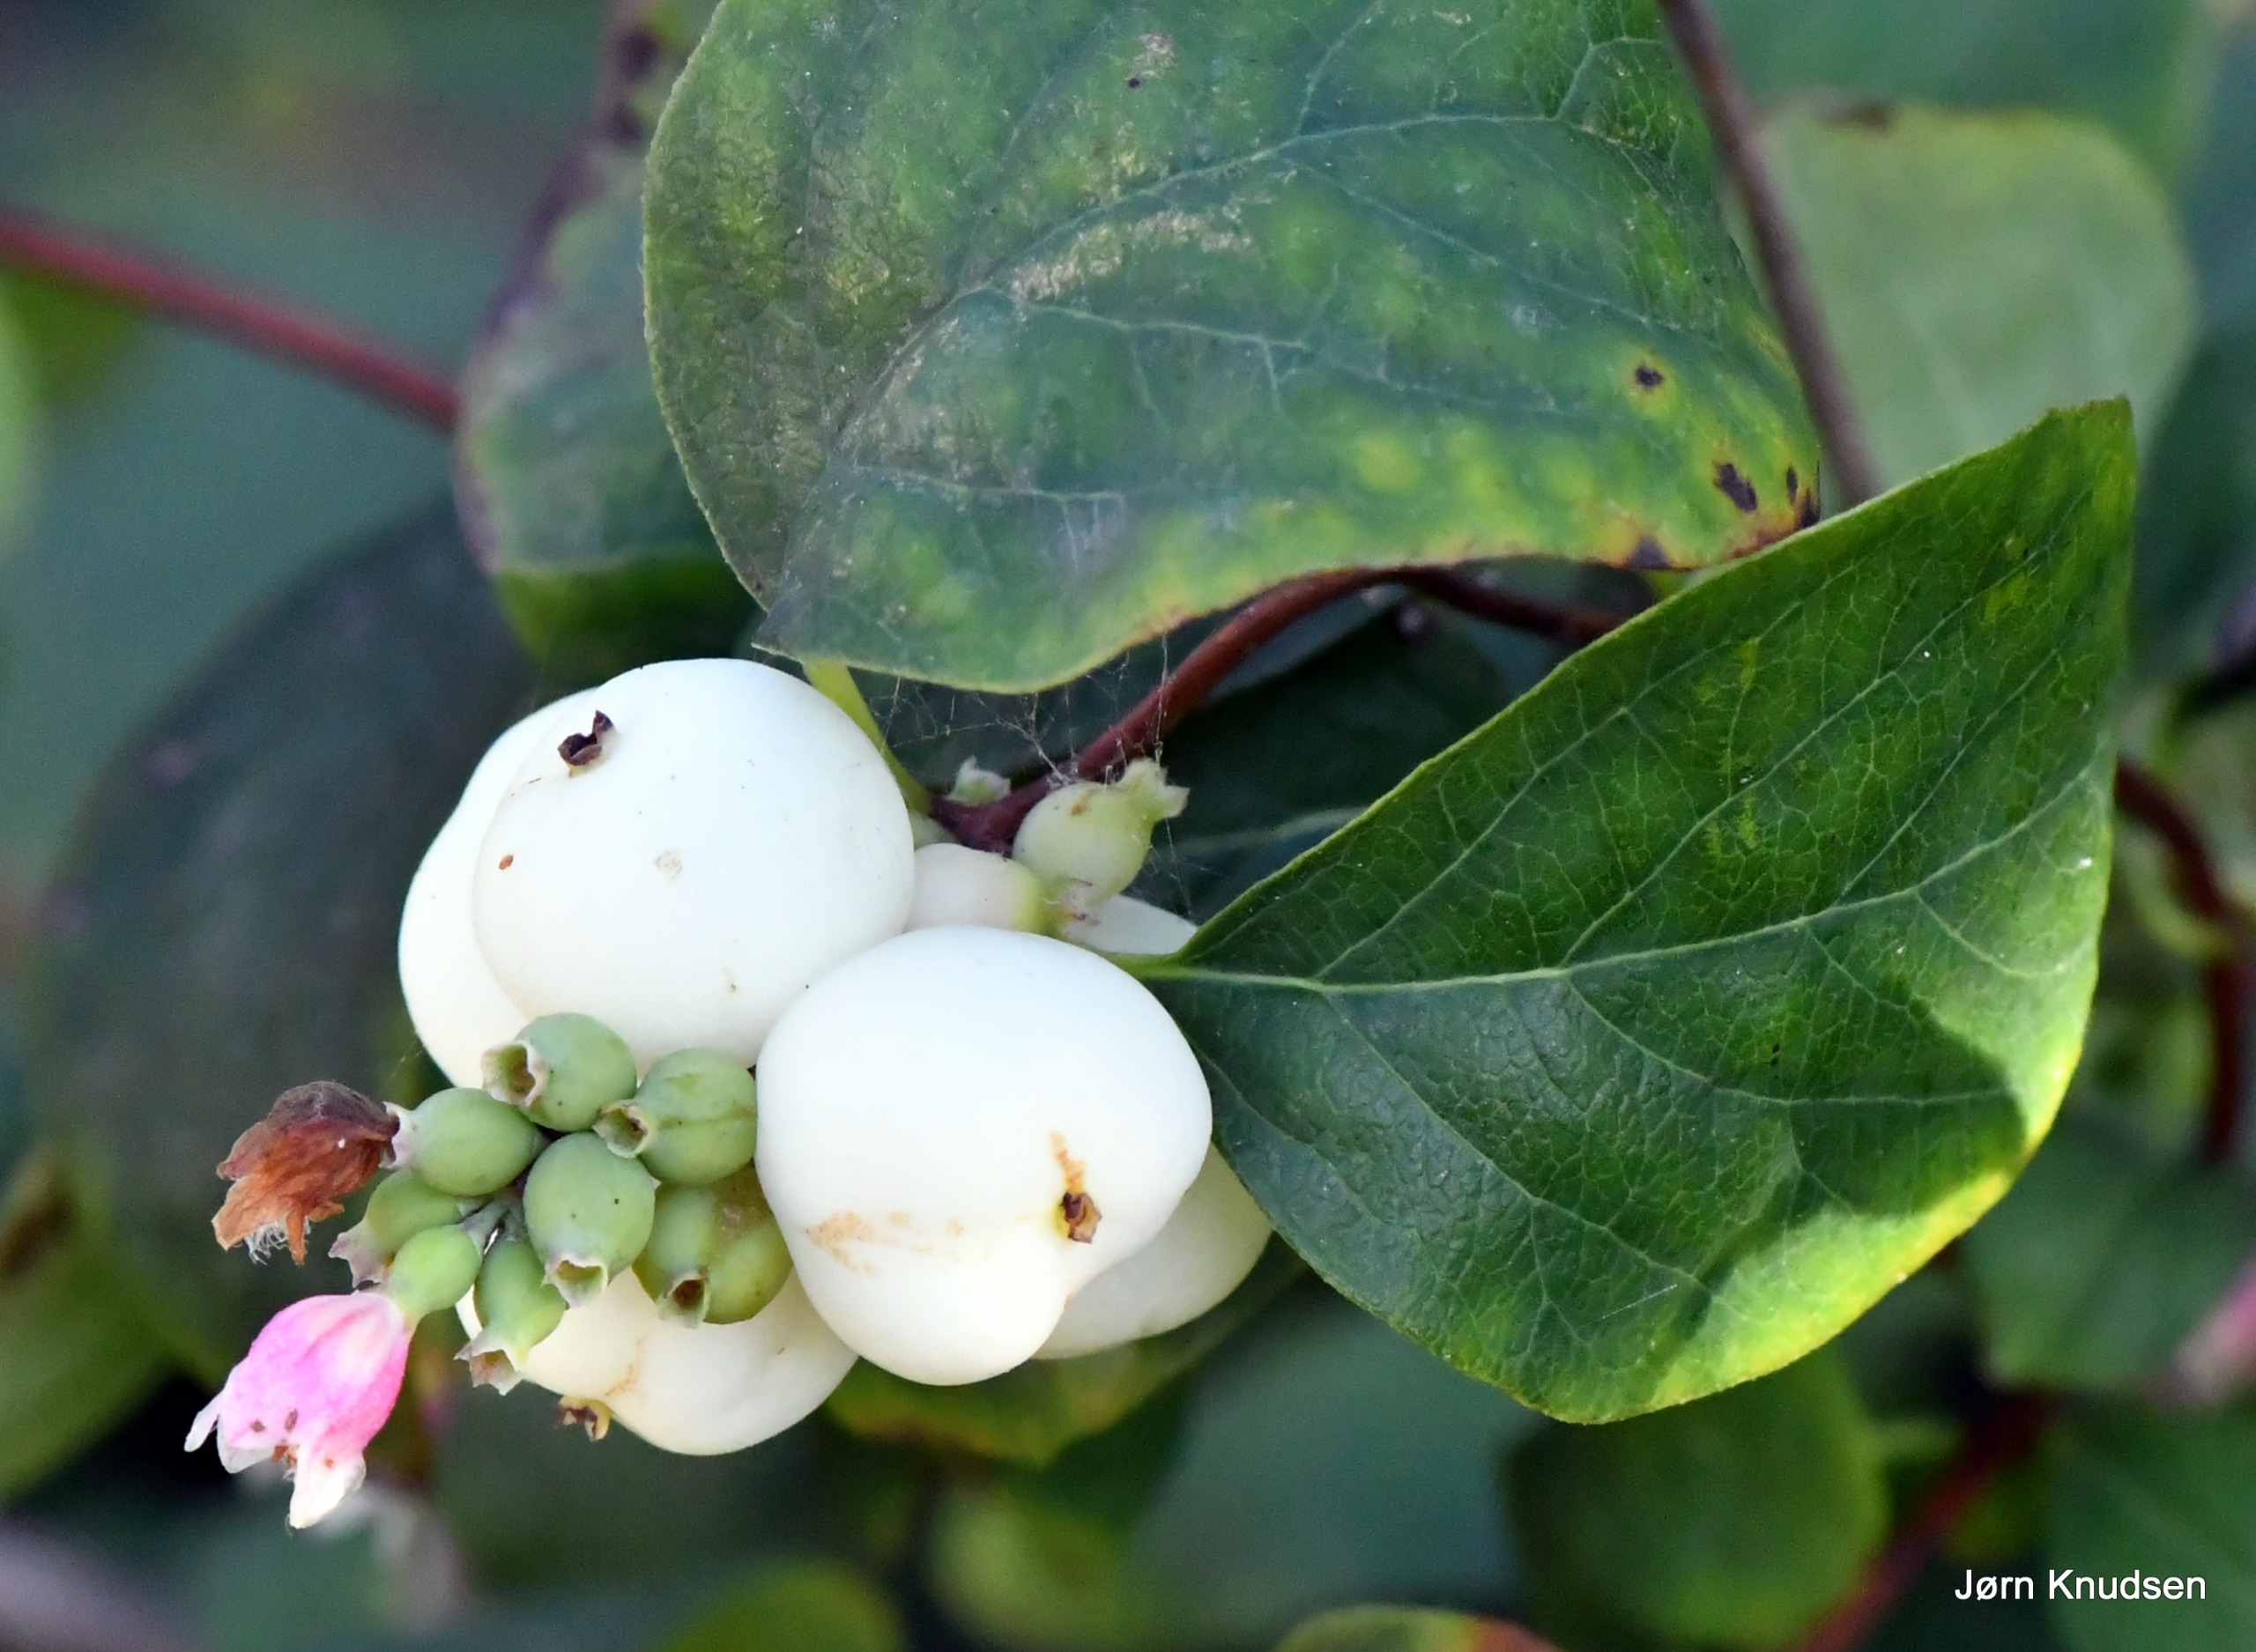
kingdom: Plantae
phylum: Tracheophyta
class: Magnoliopsida
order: Dipsacales
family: Caprifoliaceae
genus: Symphoricarpos
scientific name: Symphoricarpos albus
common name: Almindelig snebær
